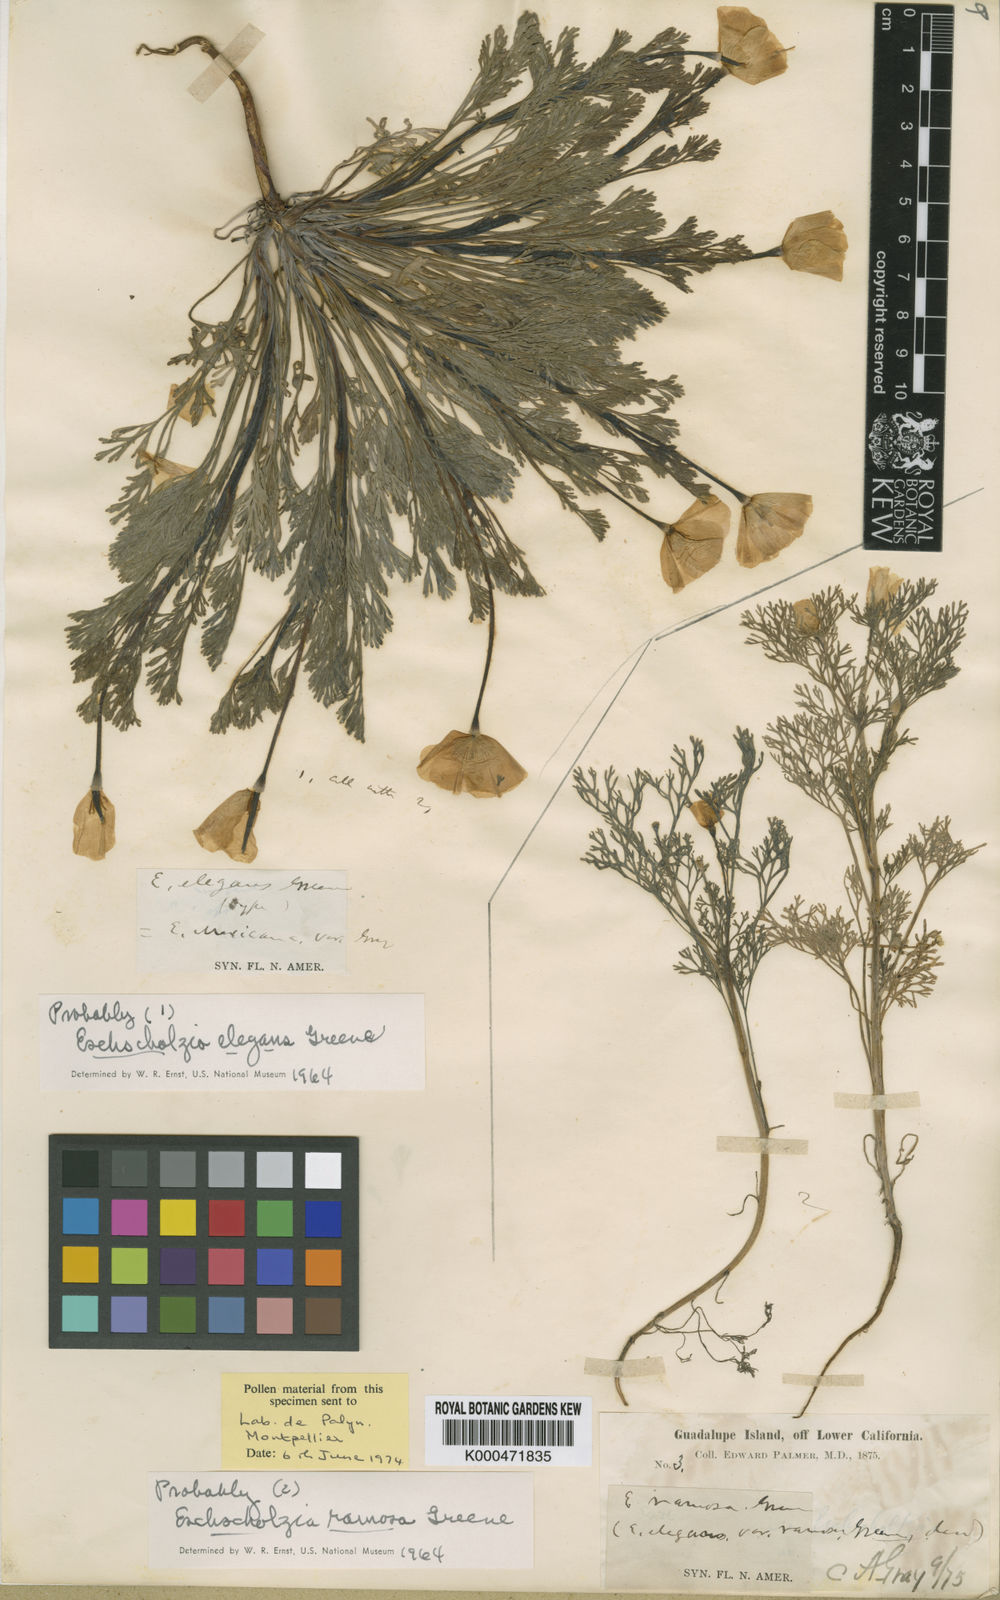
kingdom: Plantae
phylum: Tracheophyta
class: Magnoliopsida
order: Ranunculales
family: Papaveraceae
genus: Eschscholzia
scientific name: Eschscholzia elegans
